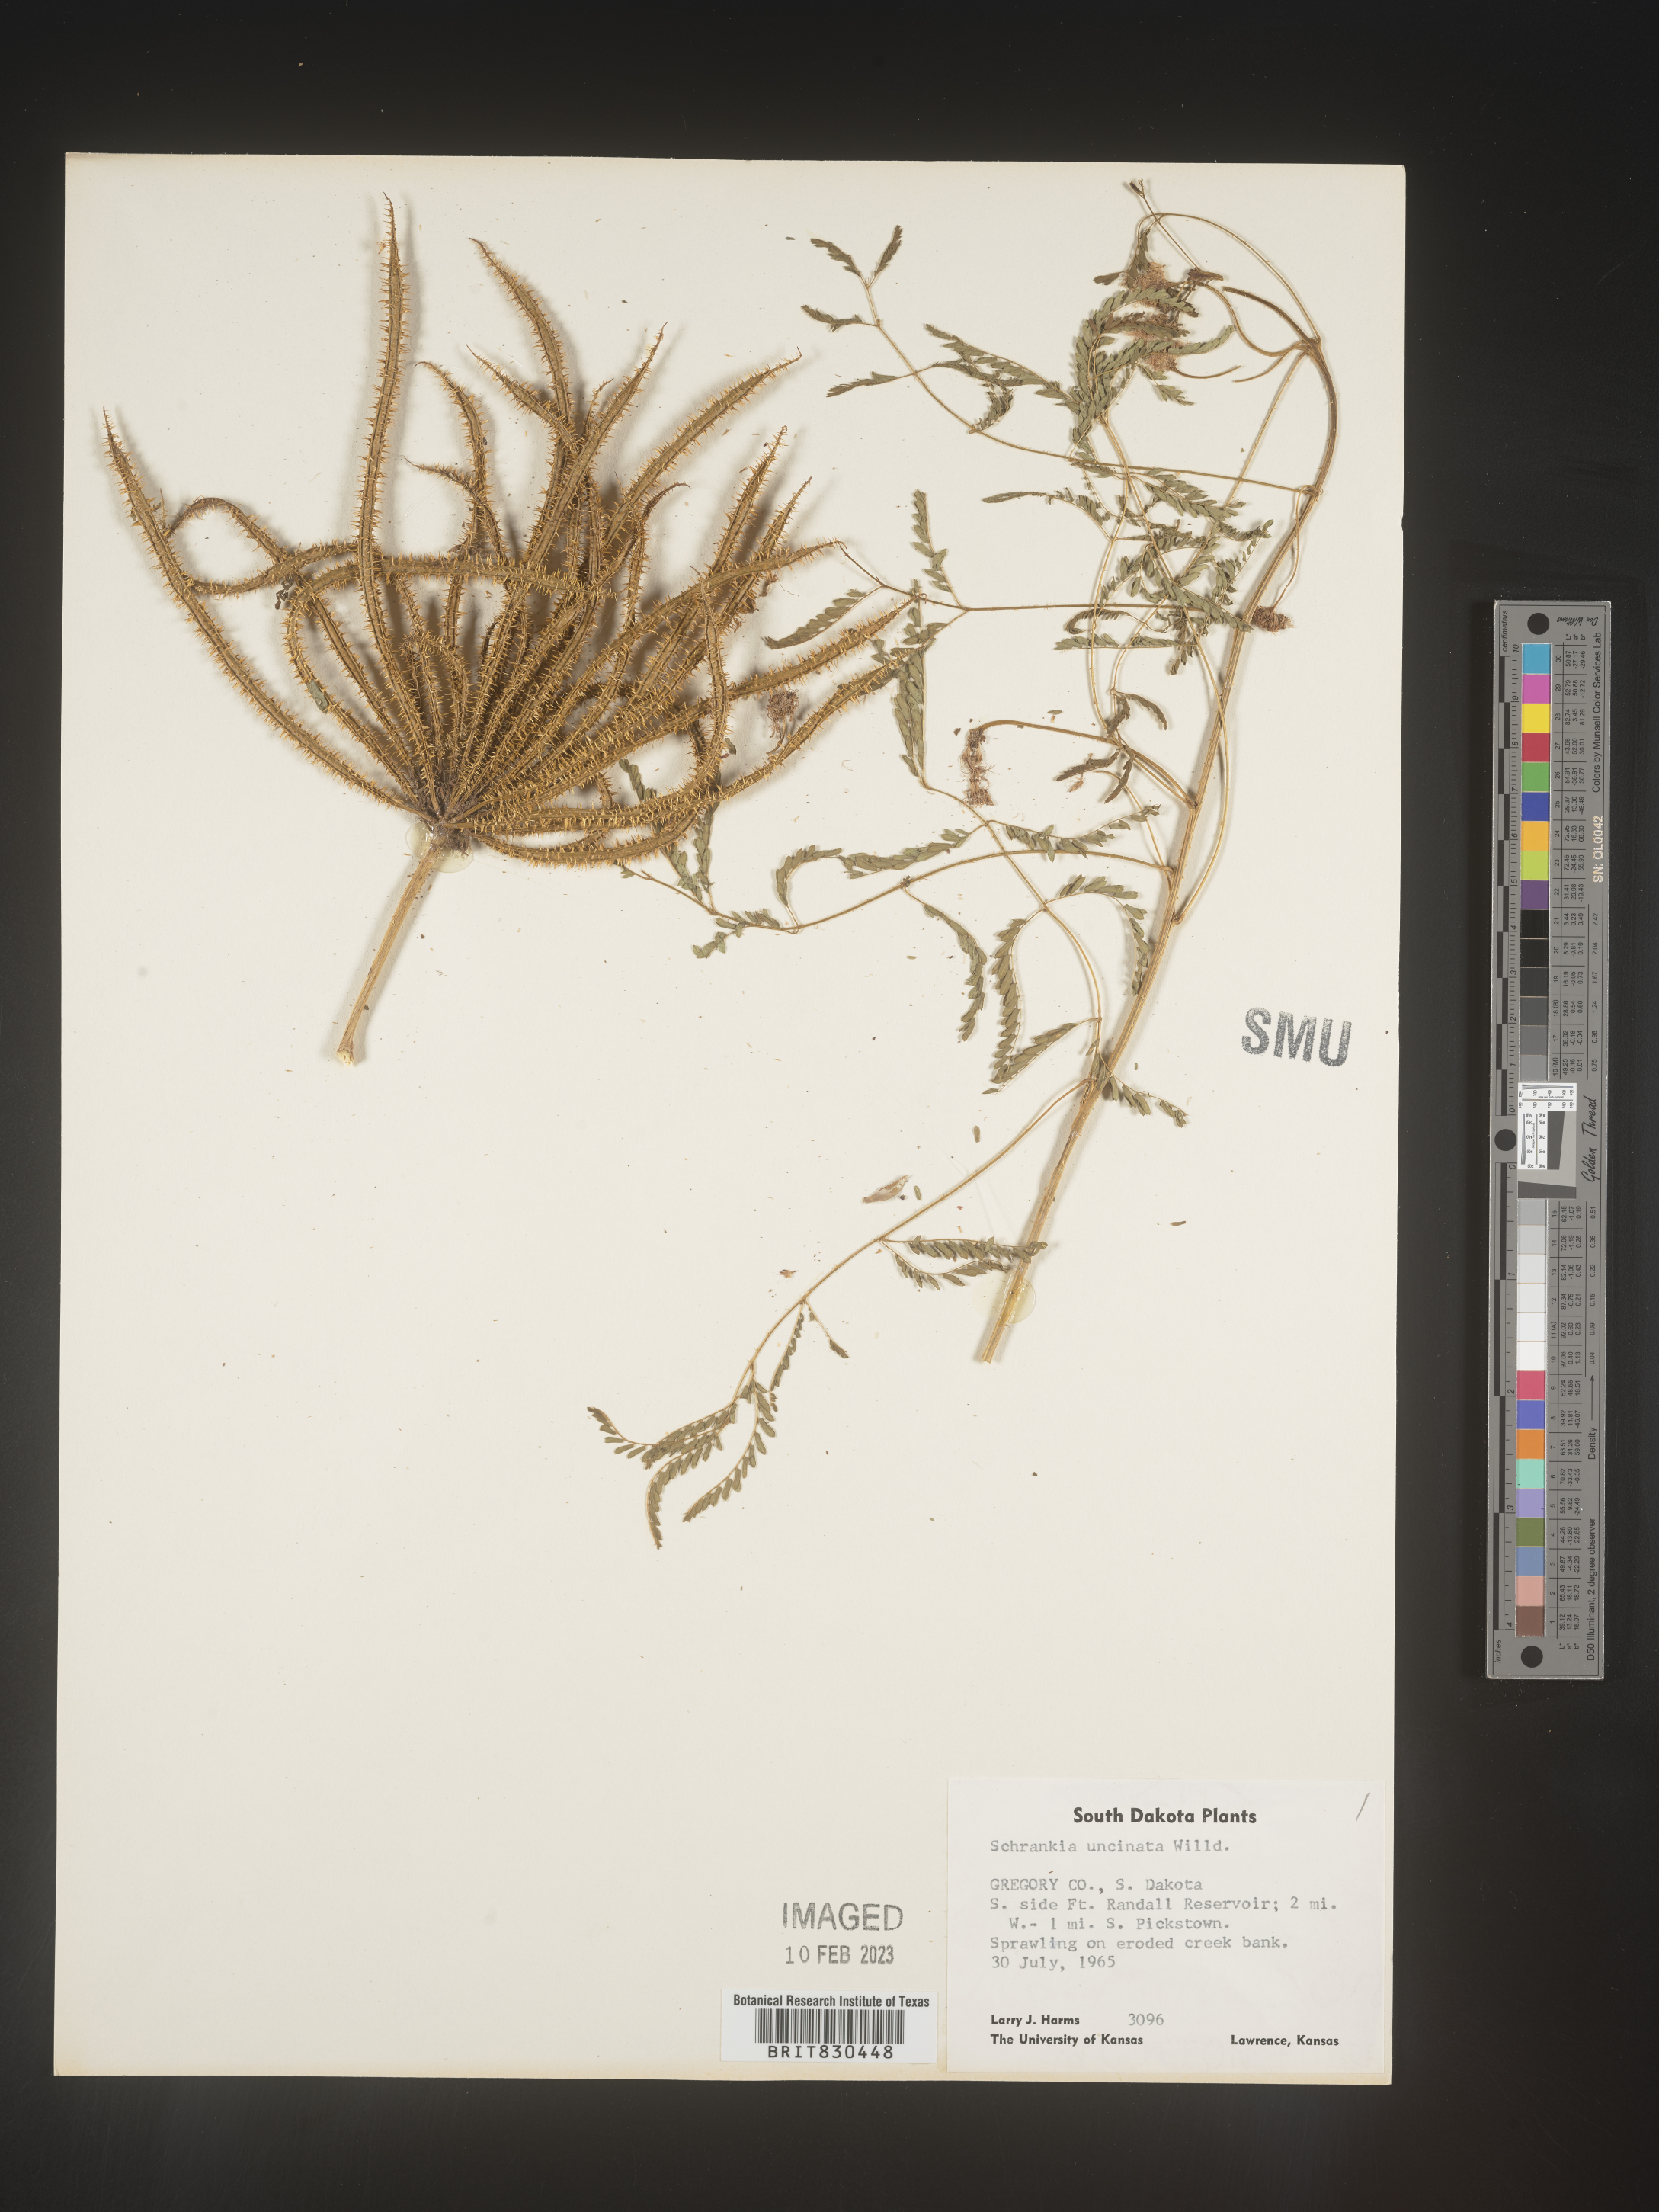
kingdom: Plantae
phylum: Tracheophyta
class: Magnoliopsida
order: Fabales
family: Fabaceae
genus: Mimosa
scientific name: Mimosa quadrivalvis
